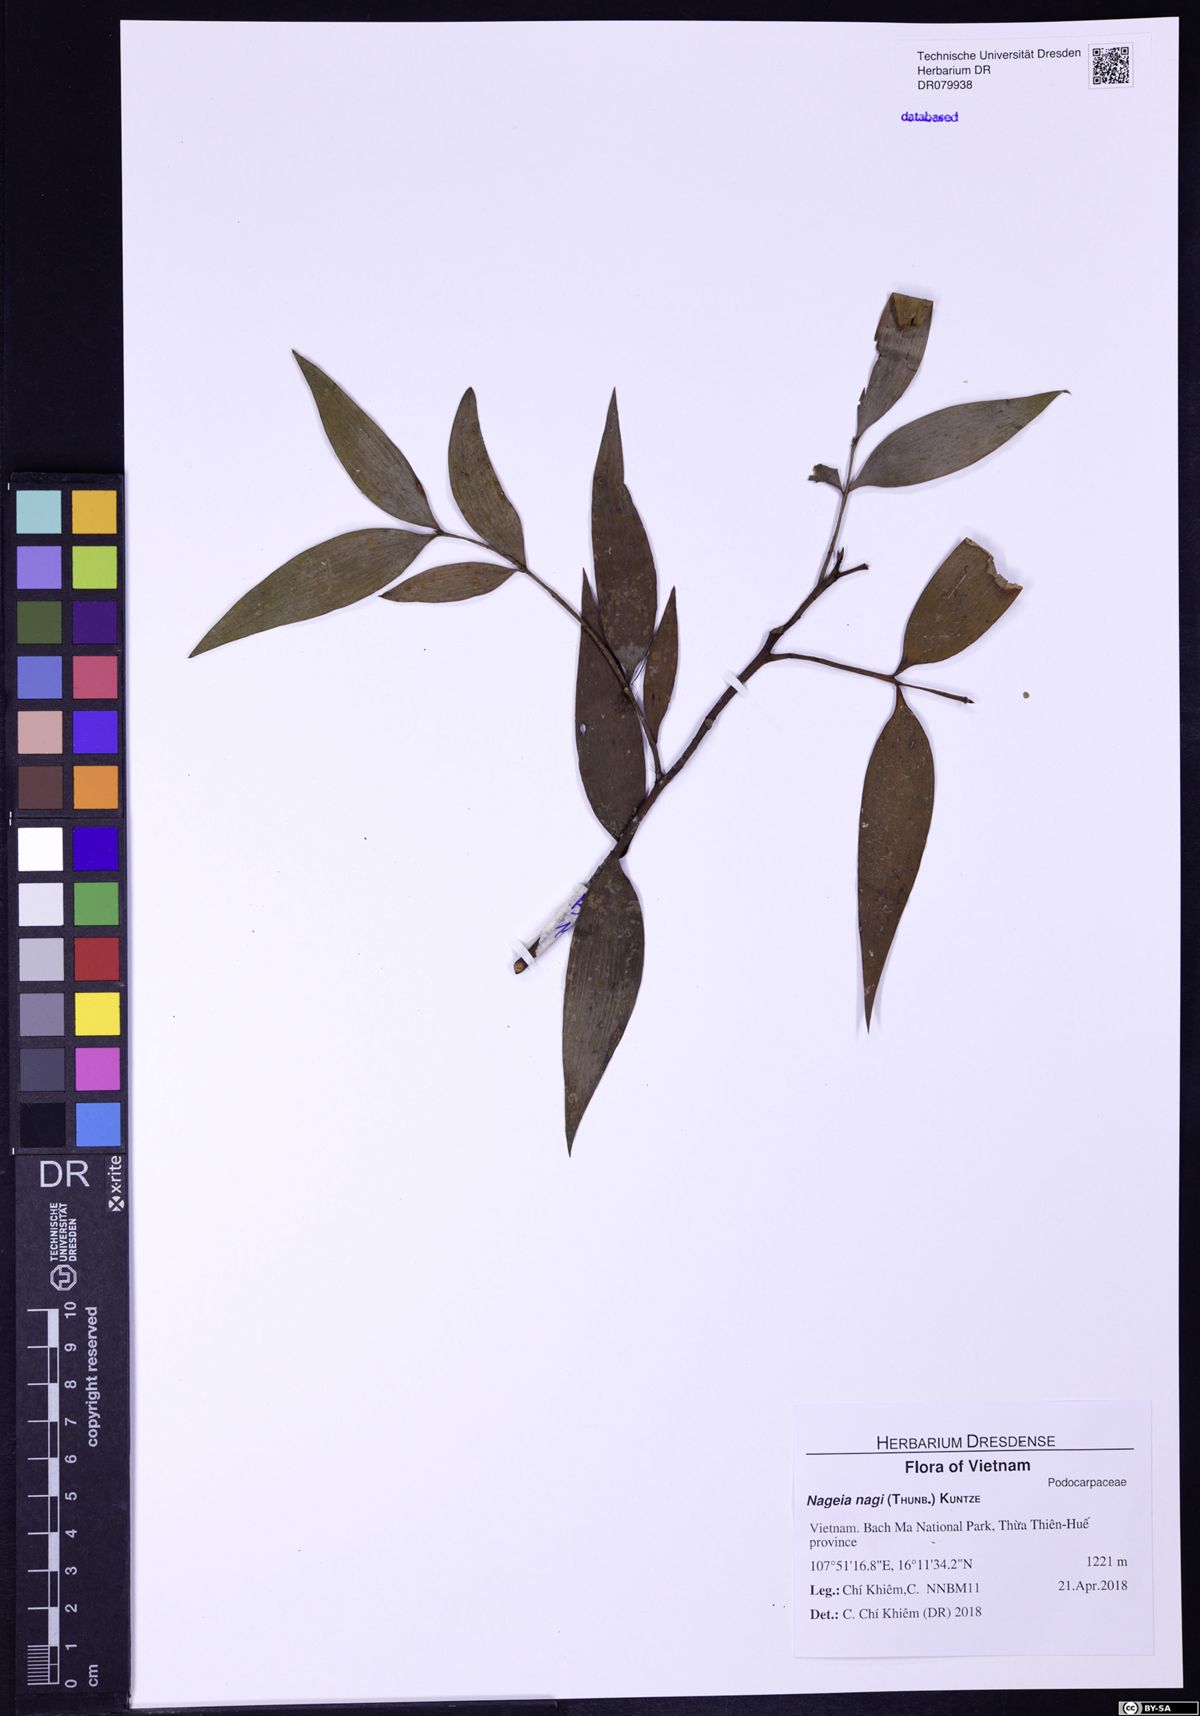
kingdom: Plantae
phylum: Tracheophyta
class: Pinopsida
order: Pinales
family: Podocarpaceae
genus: Nageia
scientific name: Nageia nagi
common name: Kaphal
